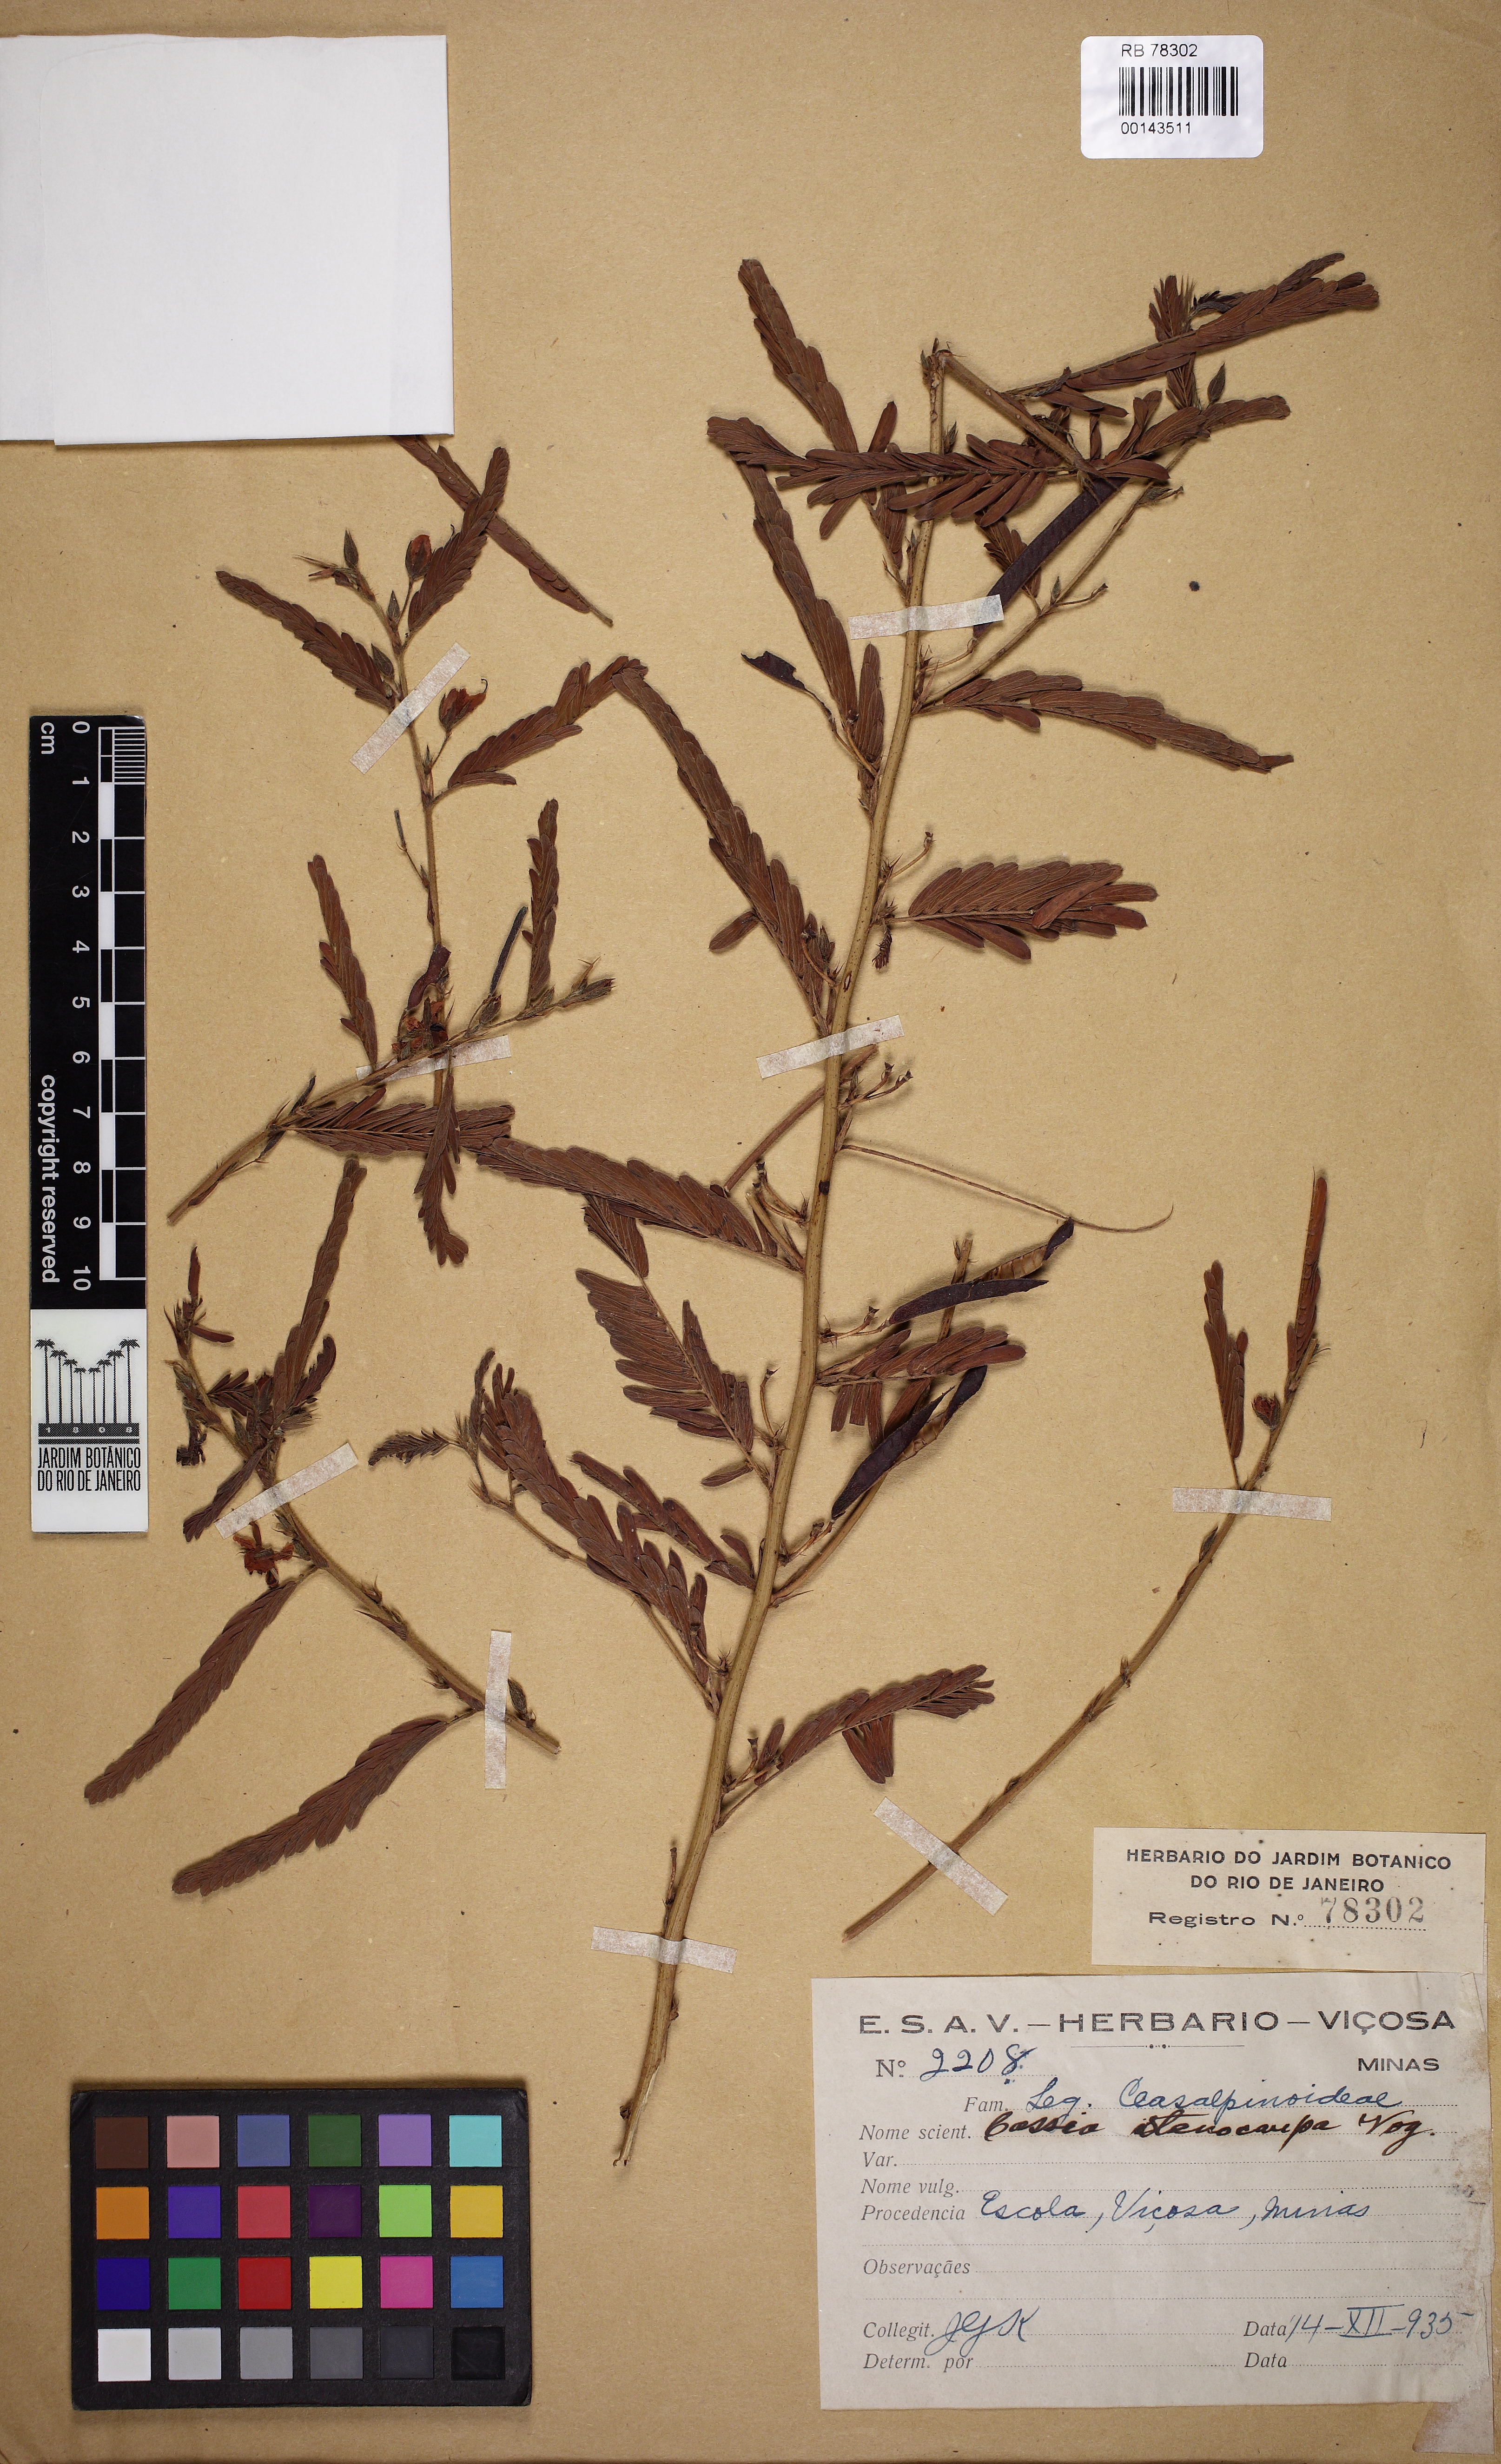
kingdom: Plantae
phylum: Tracheophyta
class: Magnoliopsida
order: Fabales
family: Fabaceae
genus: Chamaecrista
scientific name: Chamaecrista nictitans
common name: Sensitive cassia
